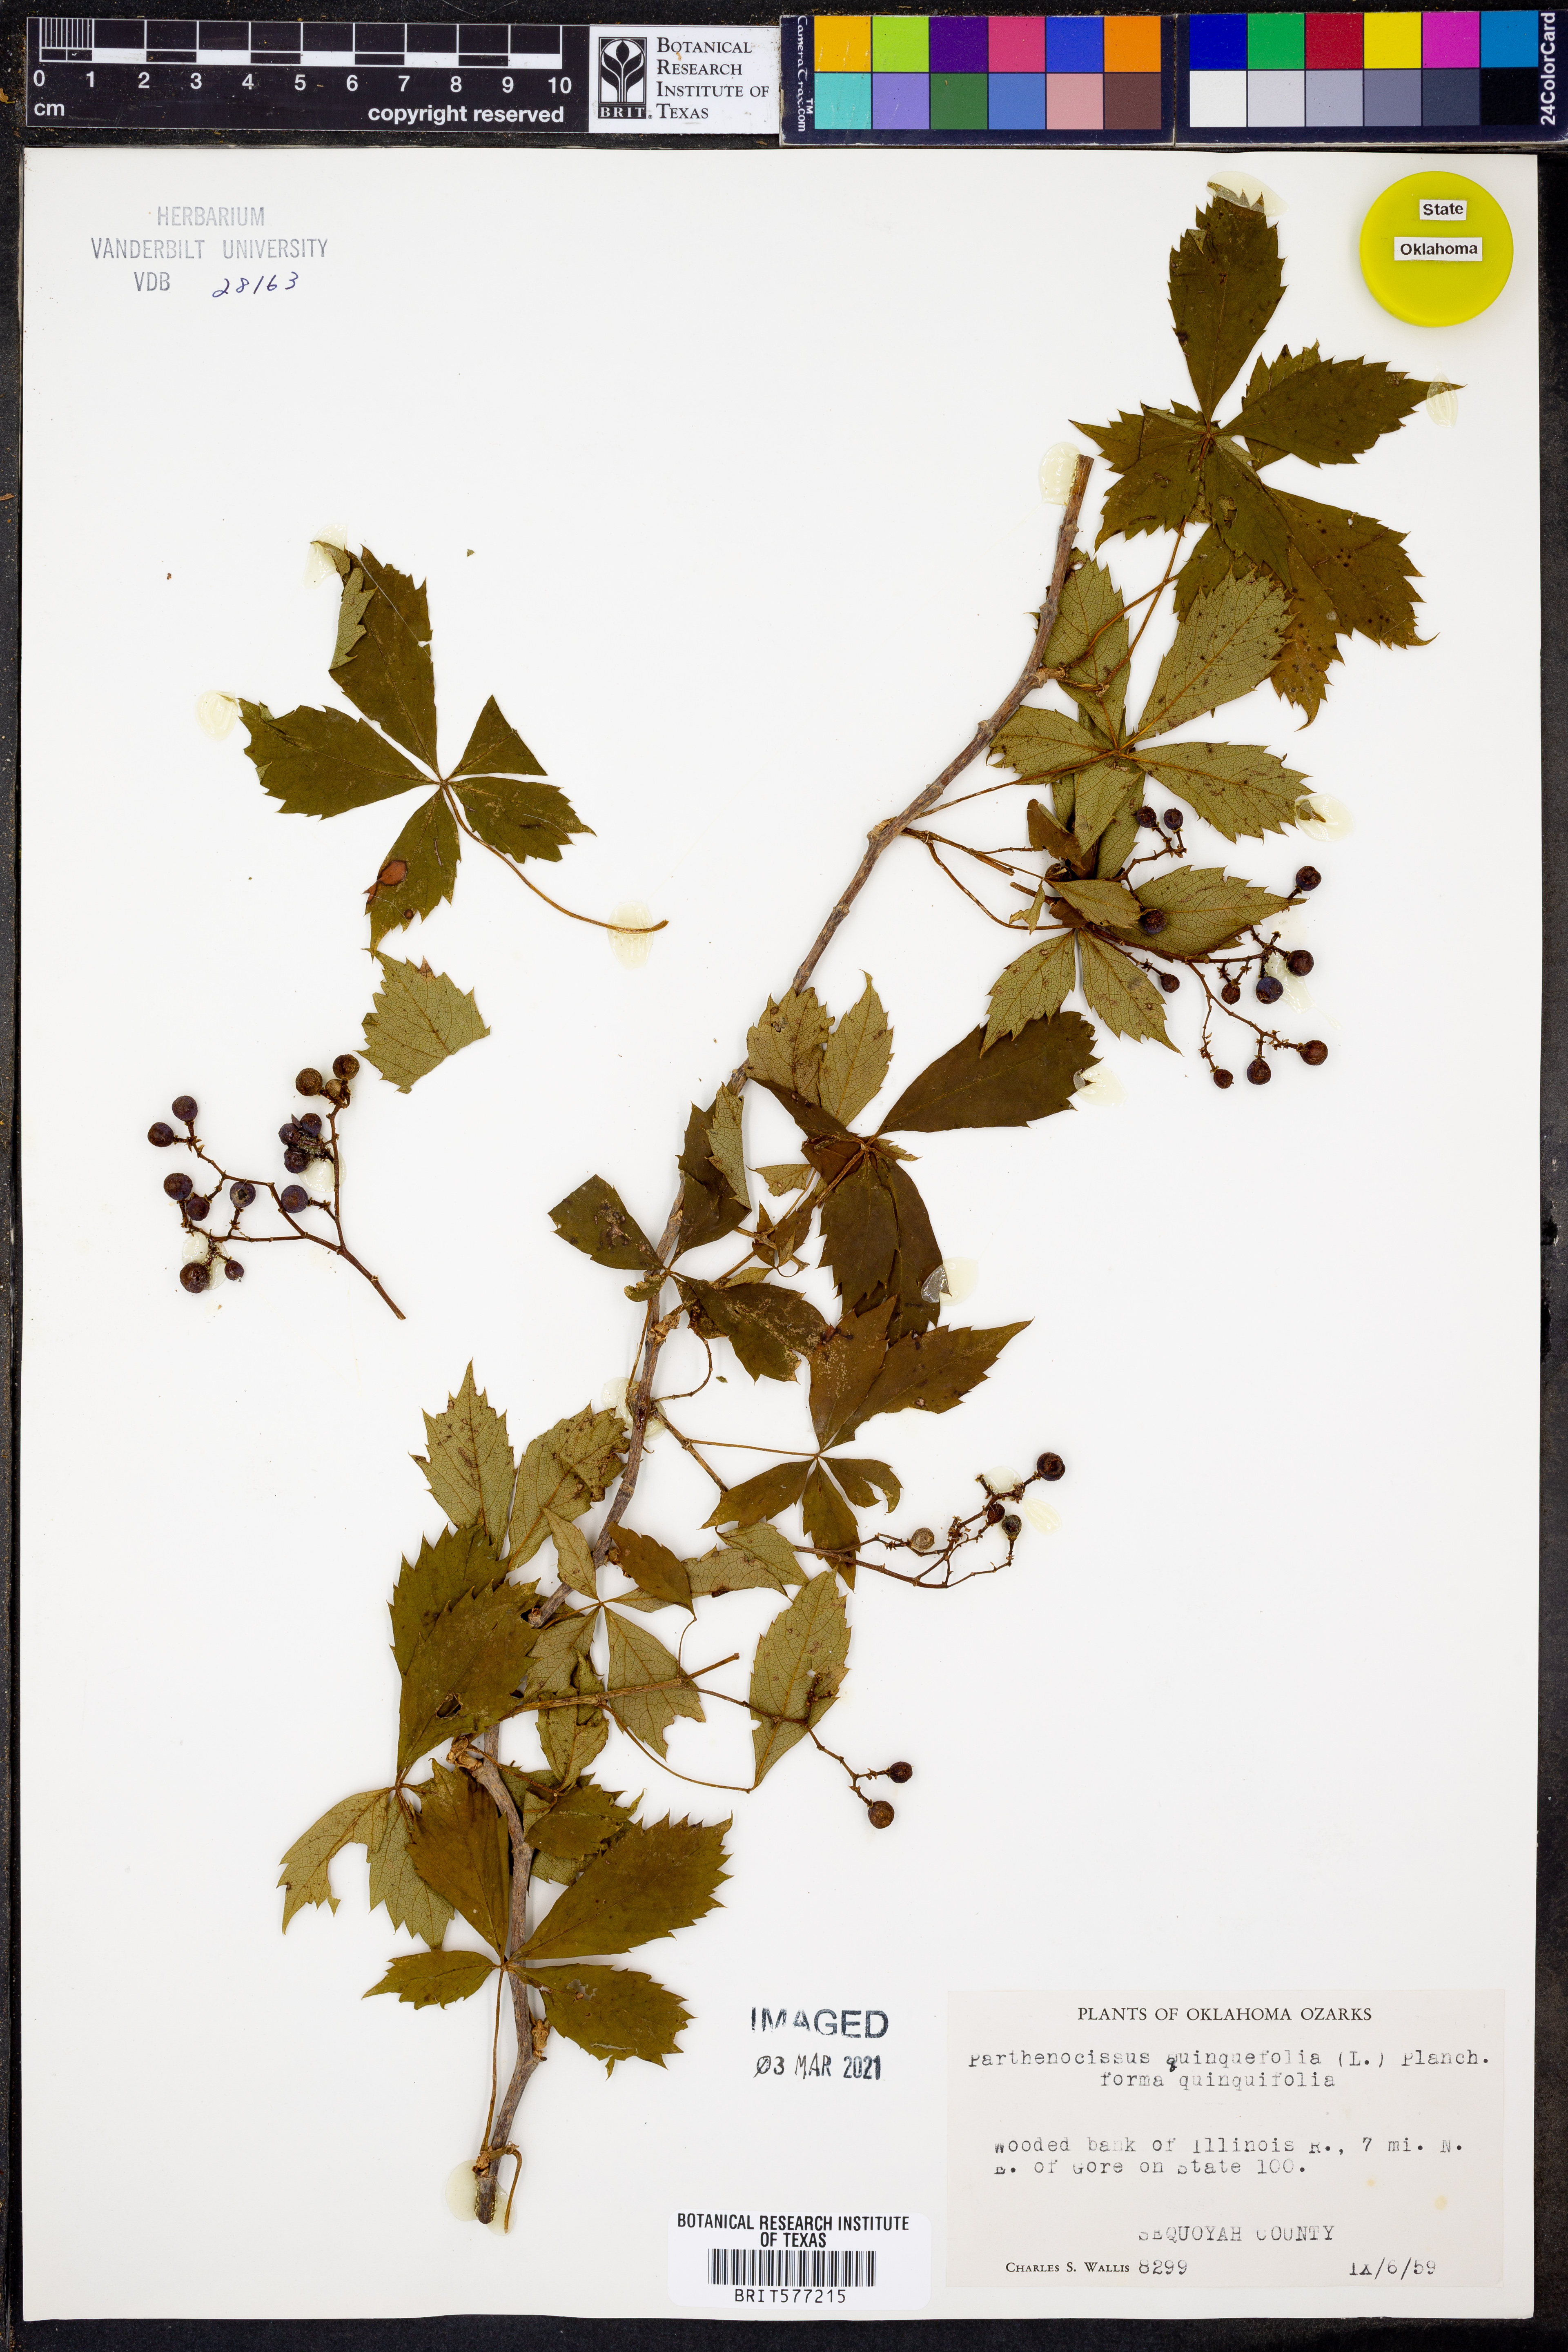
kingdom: Plantae
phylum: Tracheophyta
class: Magnoliopsida
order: Vitales
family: Vitaceae
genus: Parthenocissus
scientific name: Parthenocissus quinquefolia
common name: Virginia-creeper
